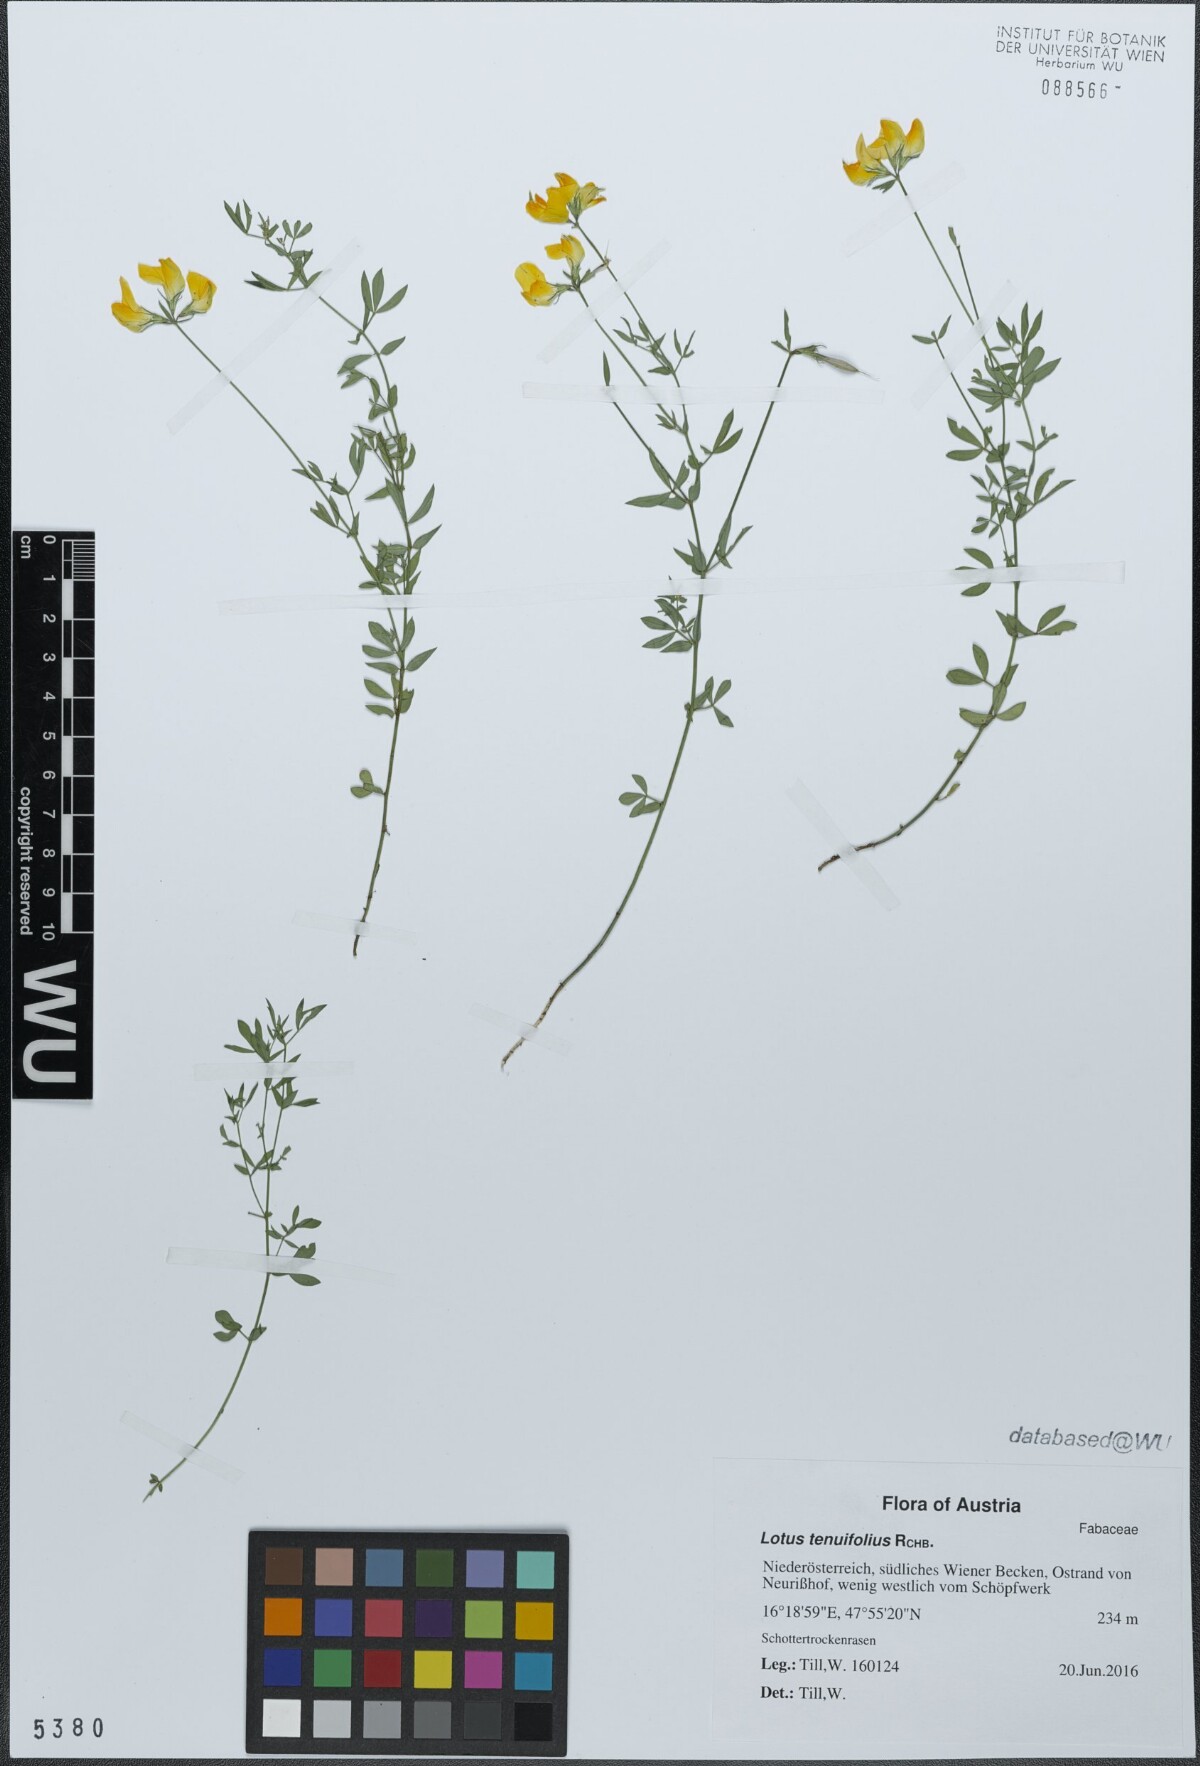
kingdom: Plantae
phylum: Tracheophyta
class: Magnoliopsida
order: Fabales
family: Fabaceae
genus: Lotus
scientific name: Lotus tenuis
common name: Narrow-leaved bird's-foot-trefoil
